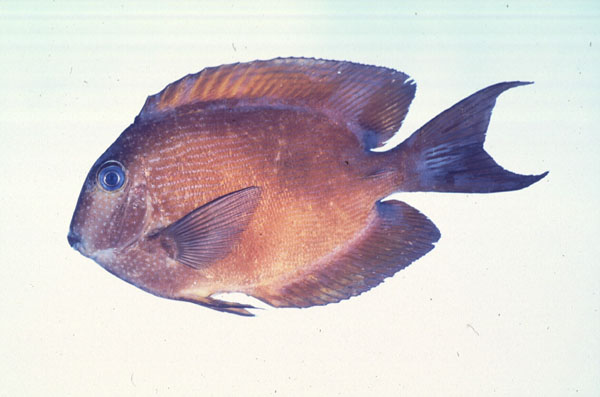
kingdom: Animalia
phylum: Chordata
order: Perciformes
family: Acanthuridae
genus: Ctenochaetus
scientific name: Ctenochaetus binotatus
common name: Two-spot bristletooth
